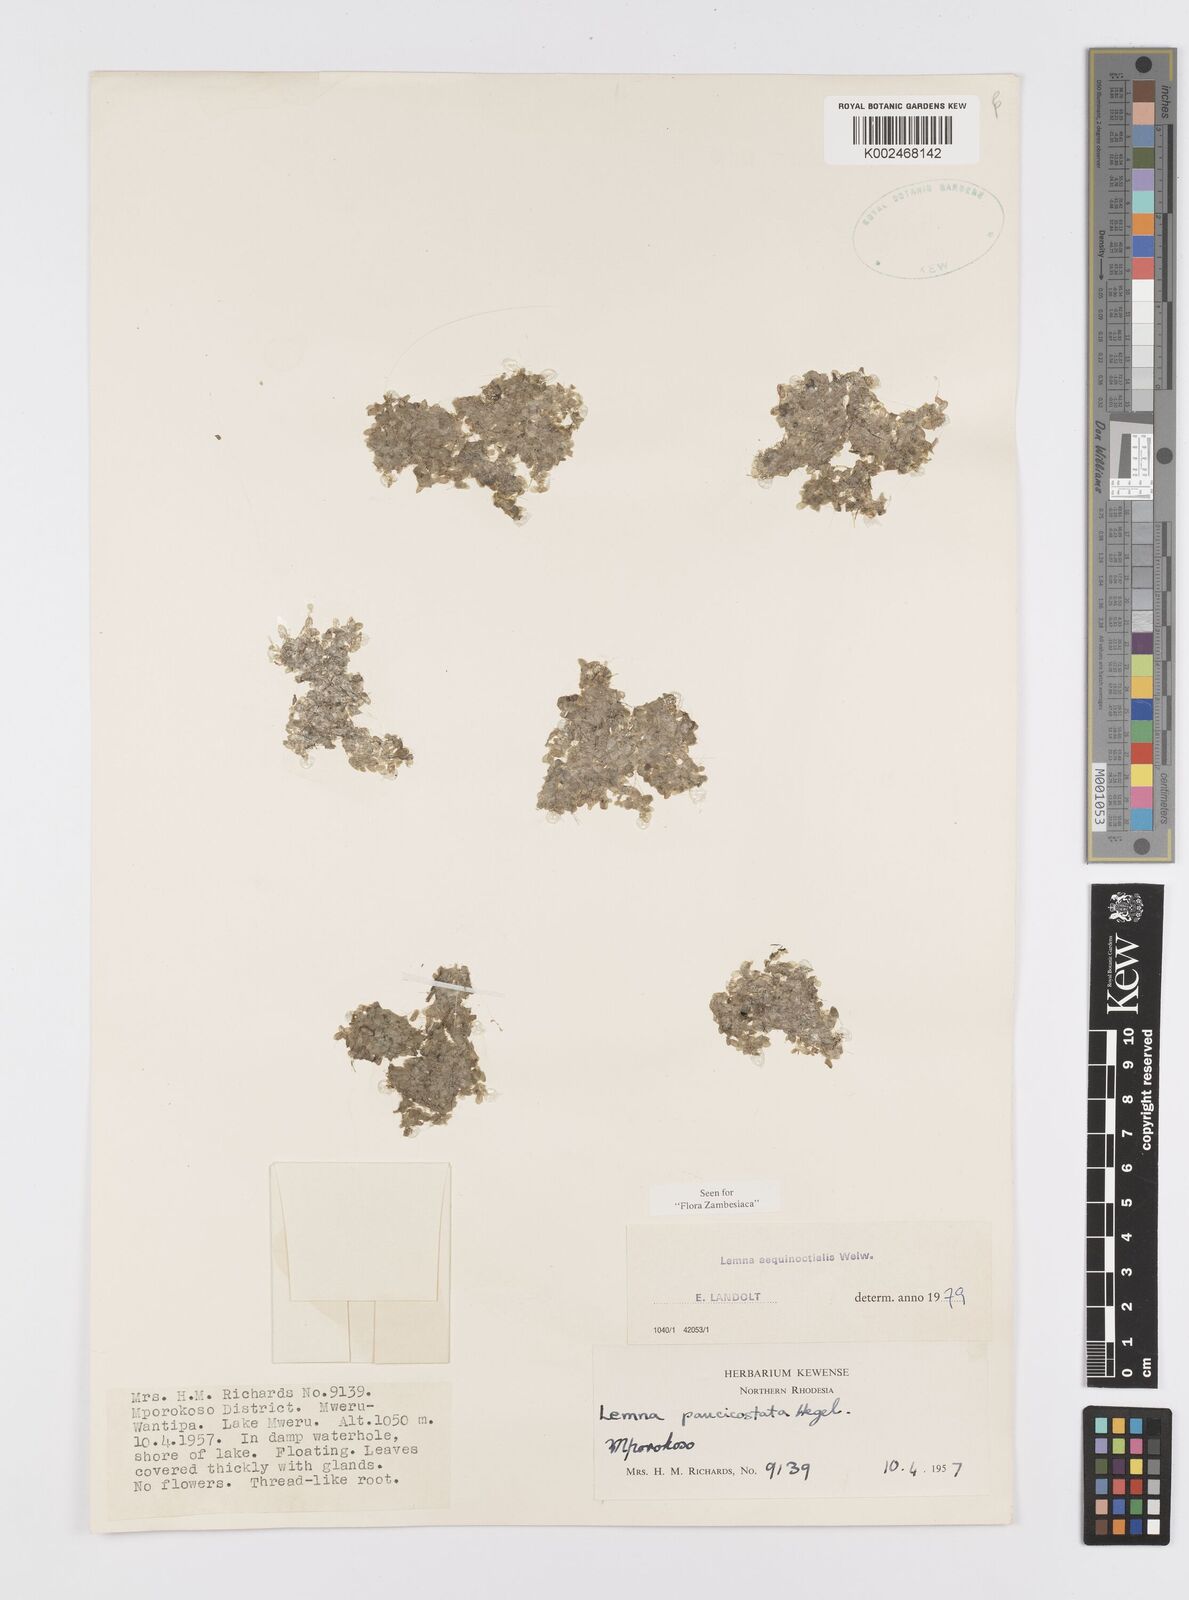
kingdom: Plantae
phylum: Tracheophyta
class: Liliopsida
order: Alismatales
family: Araceae
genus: Lemna
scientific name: Lemna aequinoctialis
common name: Duckweed
